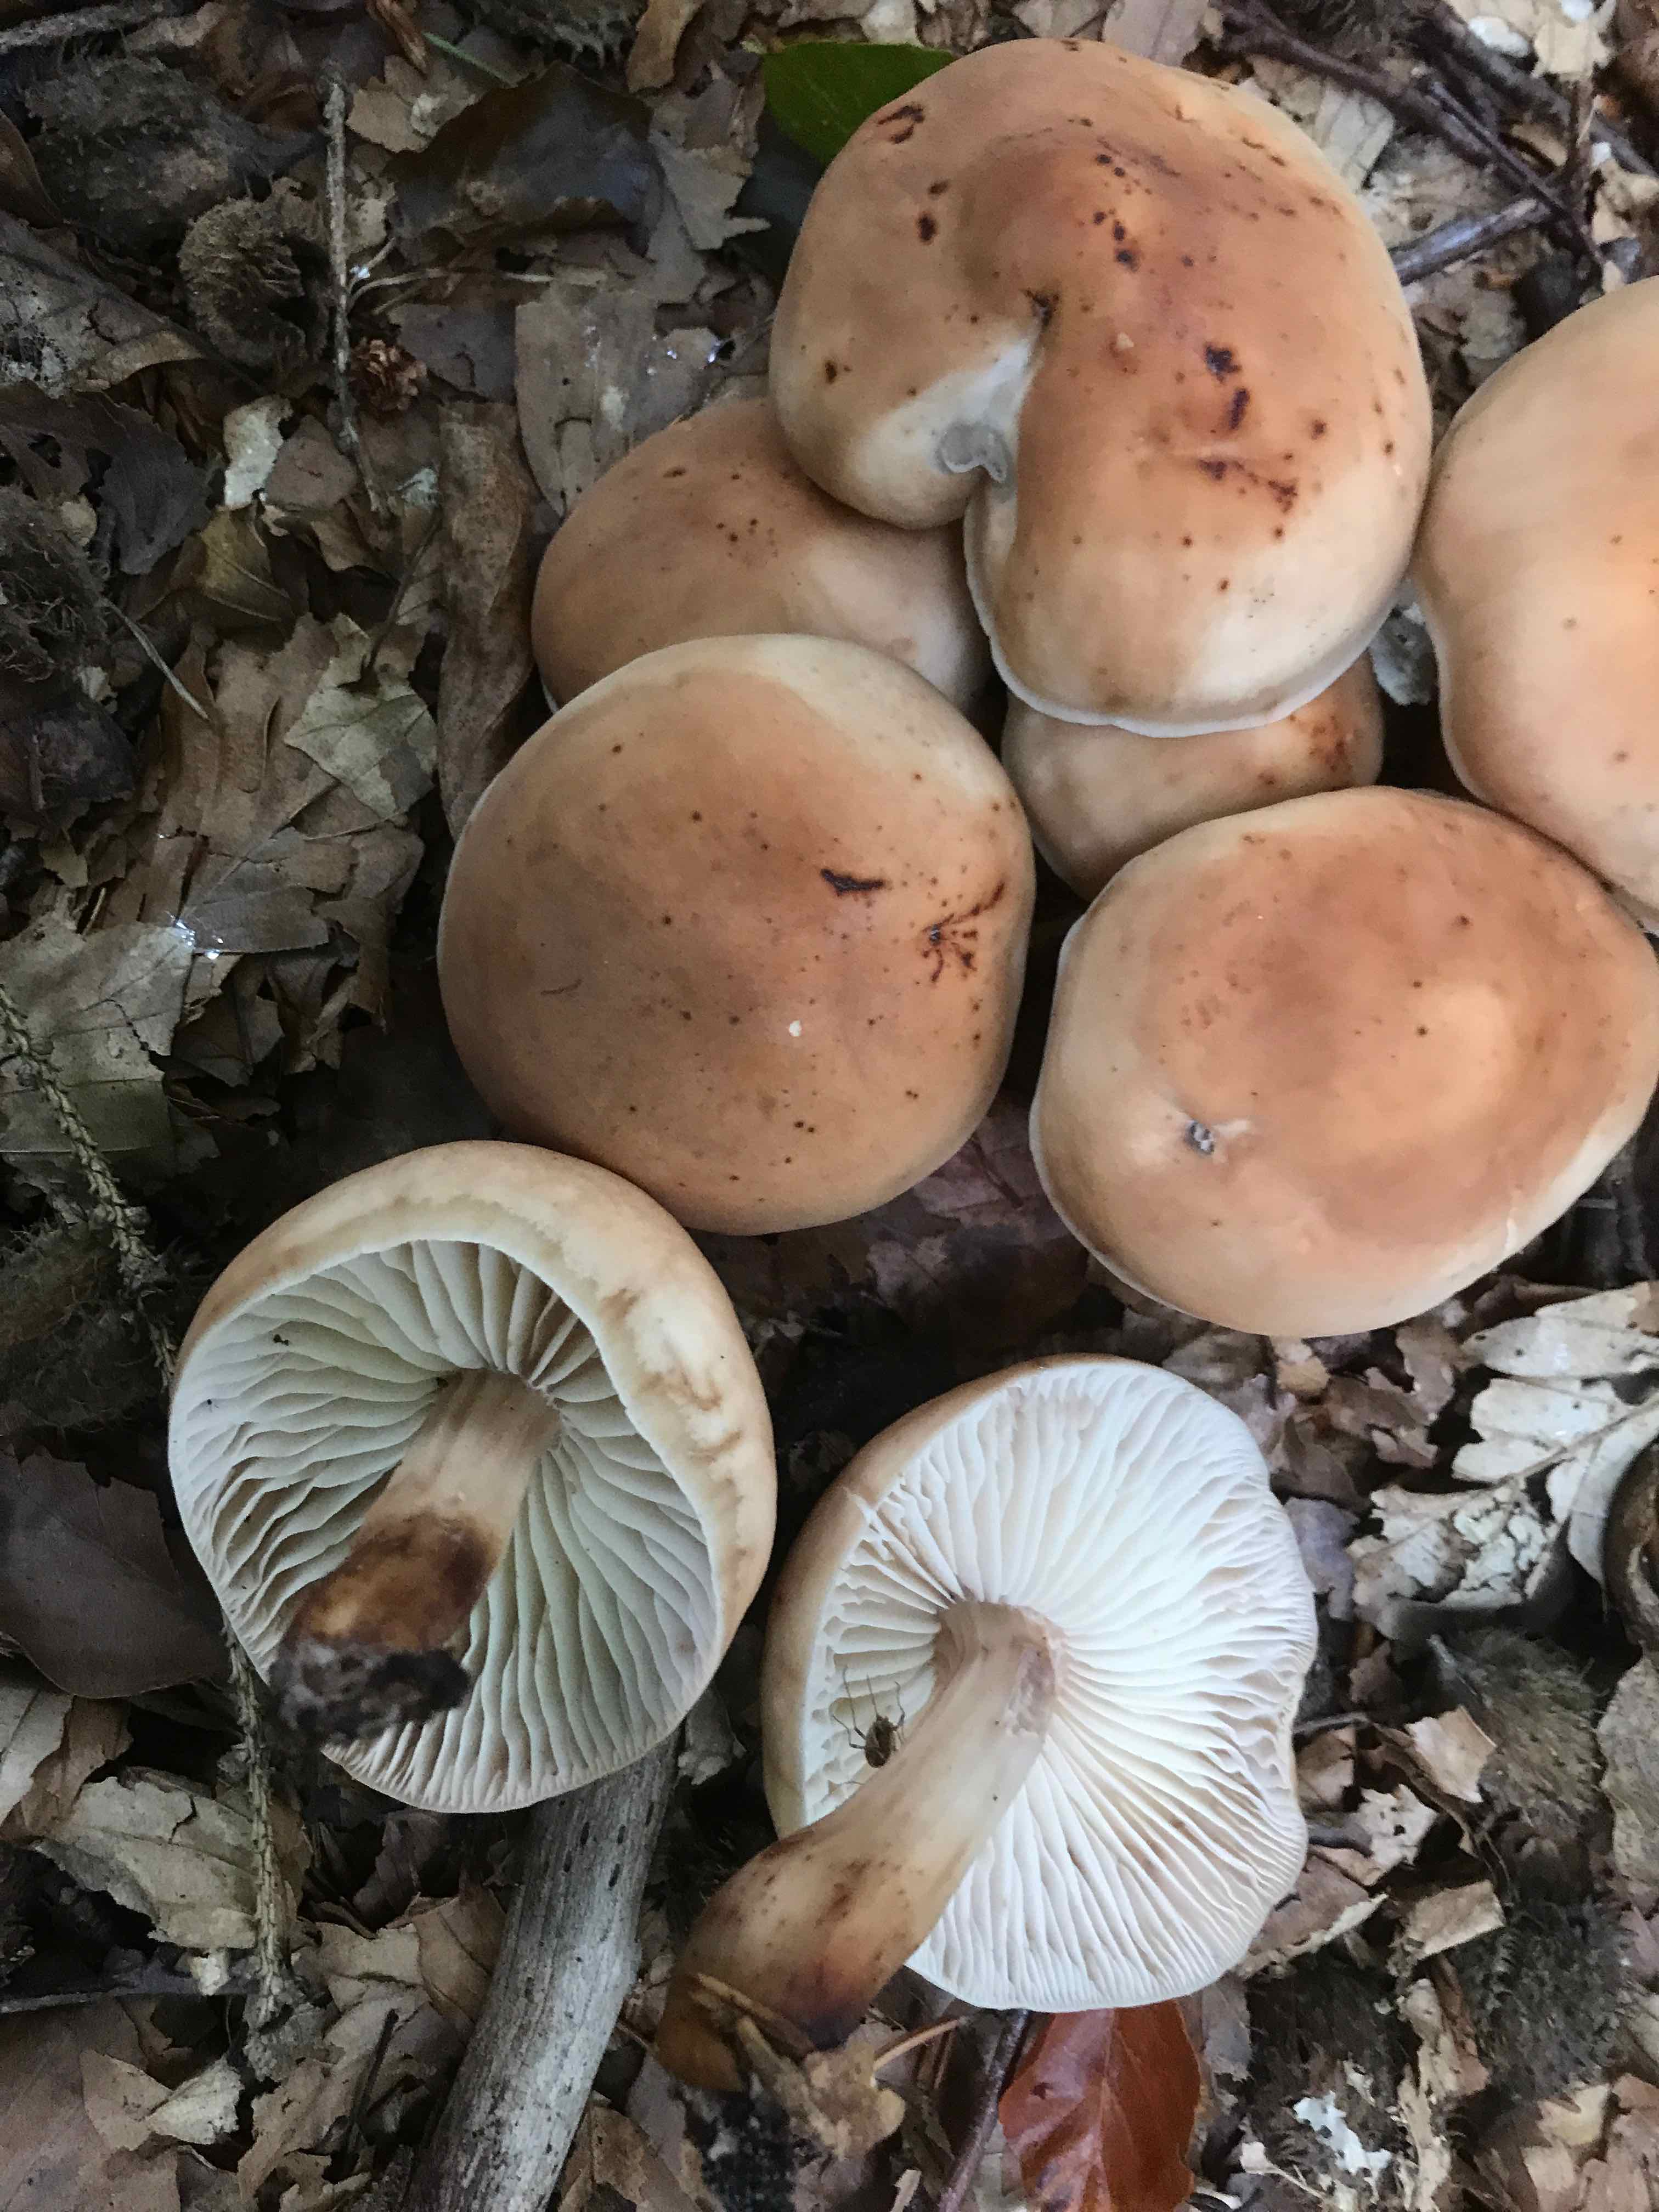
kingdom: Fungi
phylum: Basidiomycota
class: Agaricomycetes
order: Agaricales
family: Omphalotaceae
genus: Gymnopus
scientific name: Gymnopus fusipes
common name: tenstokket fladhat
